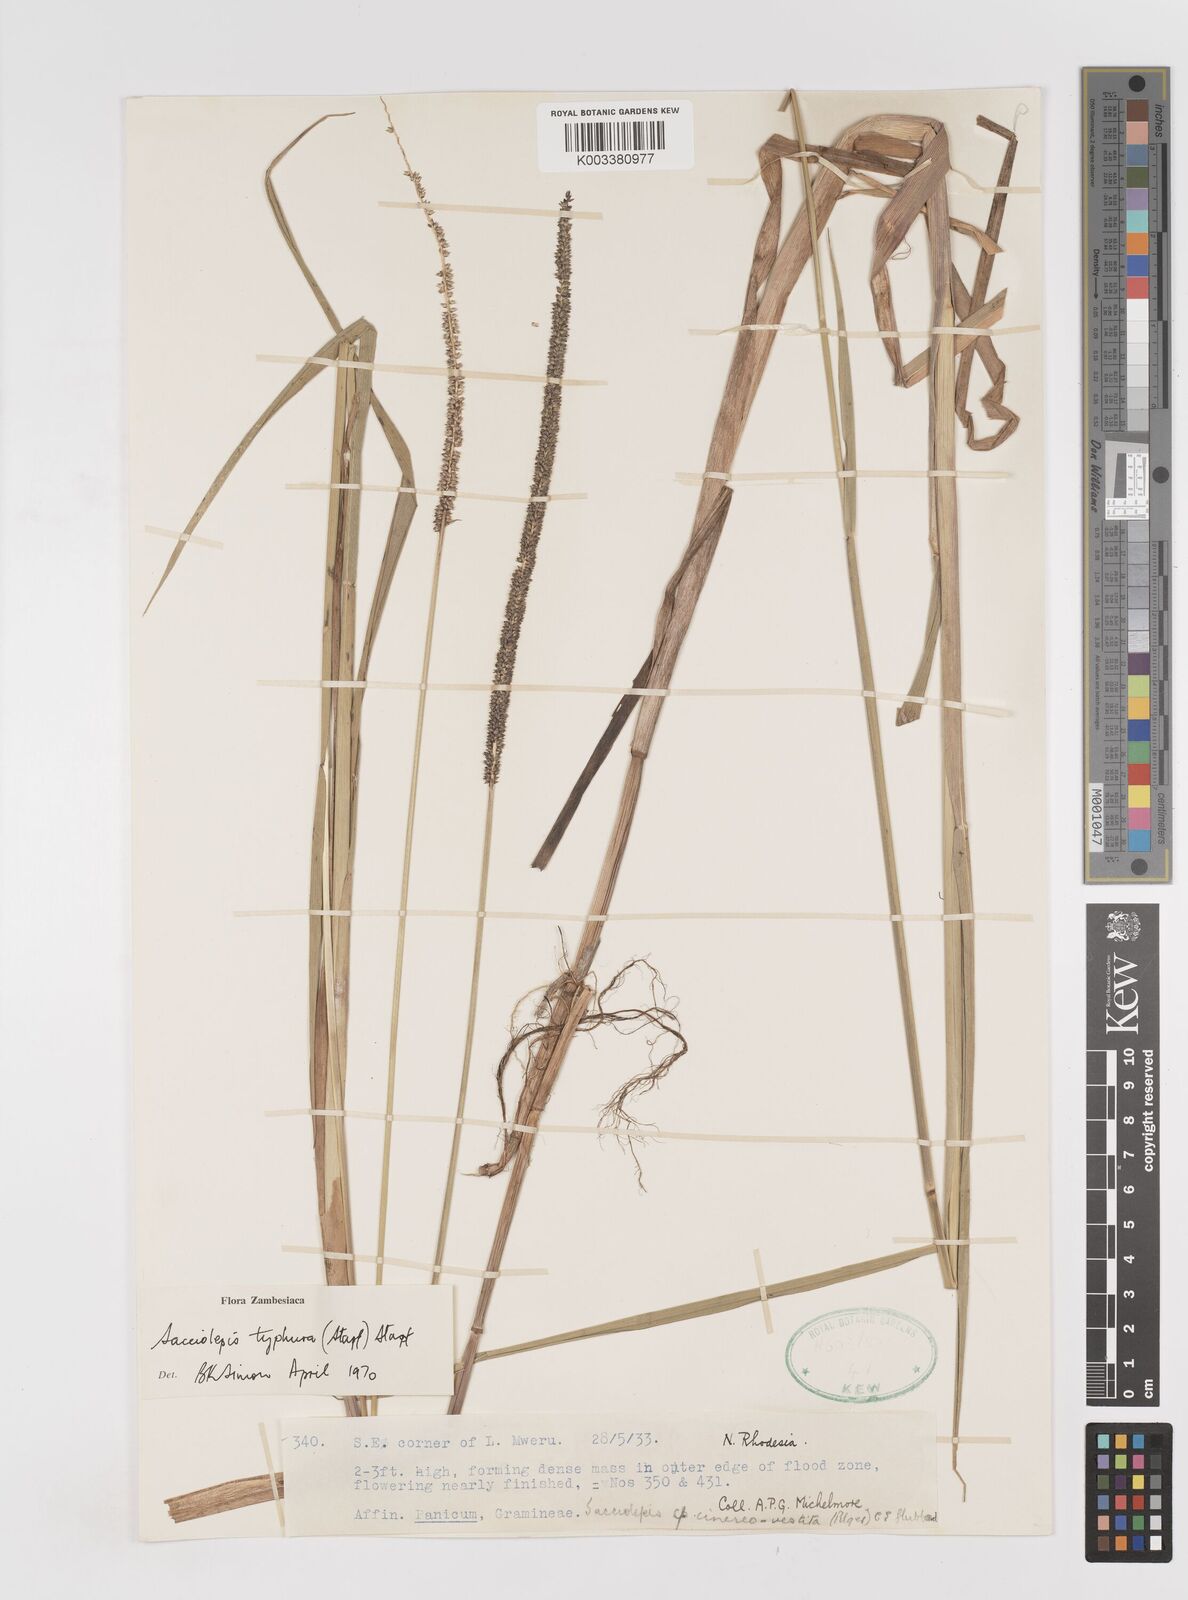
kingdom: Plantae
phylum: Tracheophyta
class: Liliopsida
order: Poales
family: Poaceae
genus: Sacciolepis
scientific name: Sacciolepis typhura
